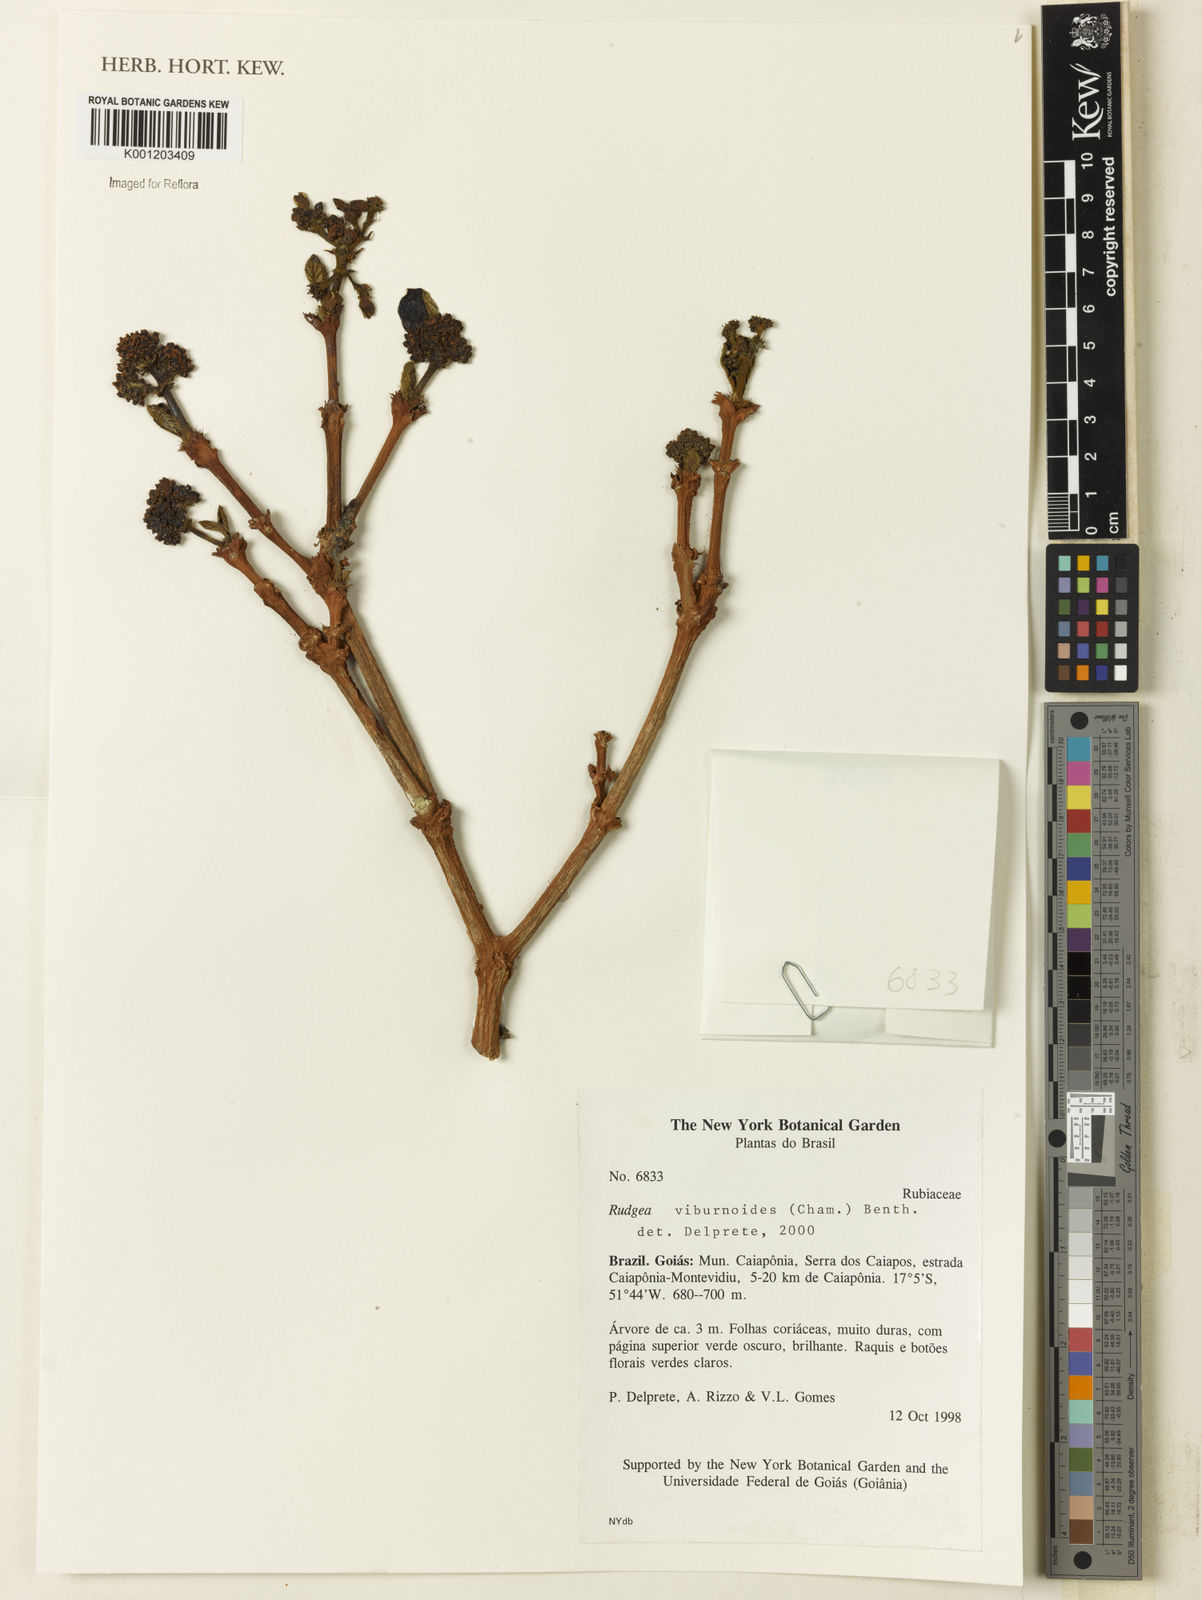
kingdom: Plantae
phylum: Tracheophyta
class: Magnoliopsida
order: Gentianales
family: Rubiaceae
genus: Rudgea
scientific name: Rudgea viburnoides
